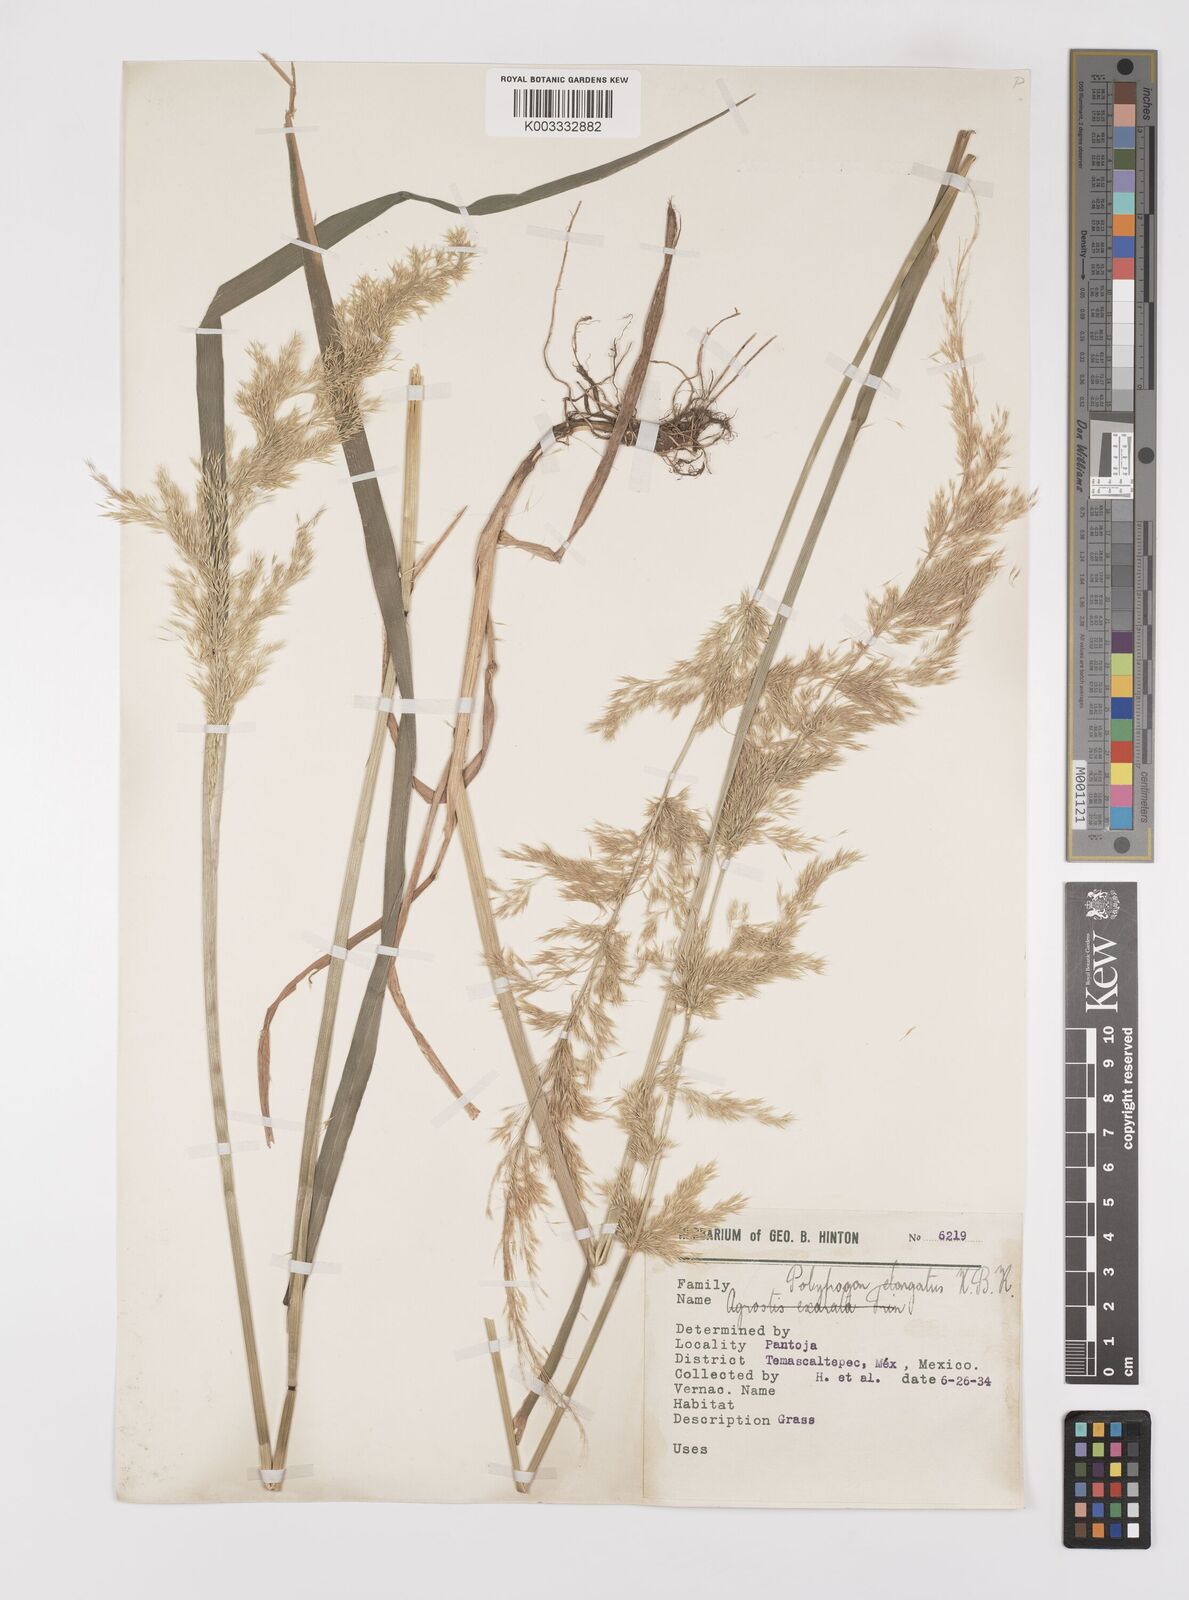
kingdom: Plantae
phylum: Tracheophyta
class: Liliopsida
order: Poales
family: Poaceae
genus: Polypogon
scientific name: Polypogon elongatus
